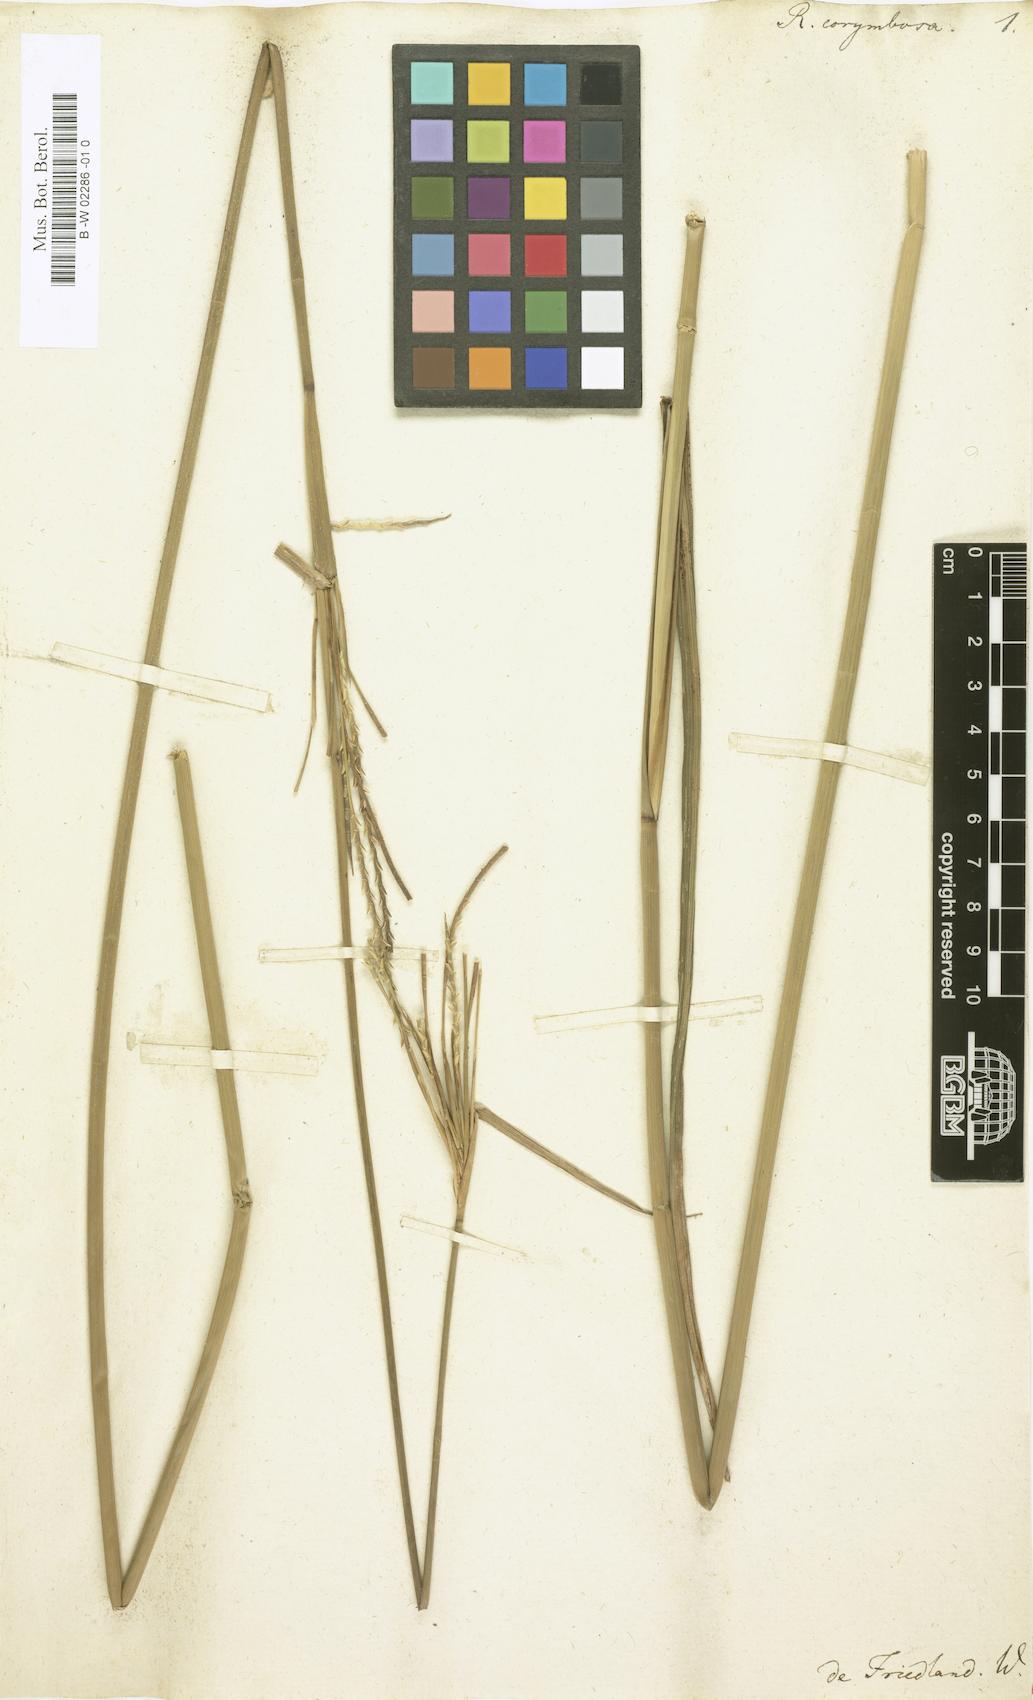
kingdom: Plantae
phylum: Tracheophyta
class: Liliopsida
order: Poales
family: Poaceae
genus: Ophiuros
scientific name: Ophiuros exaltatus
